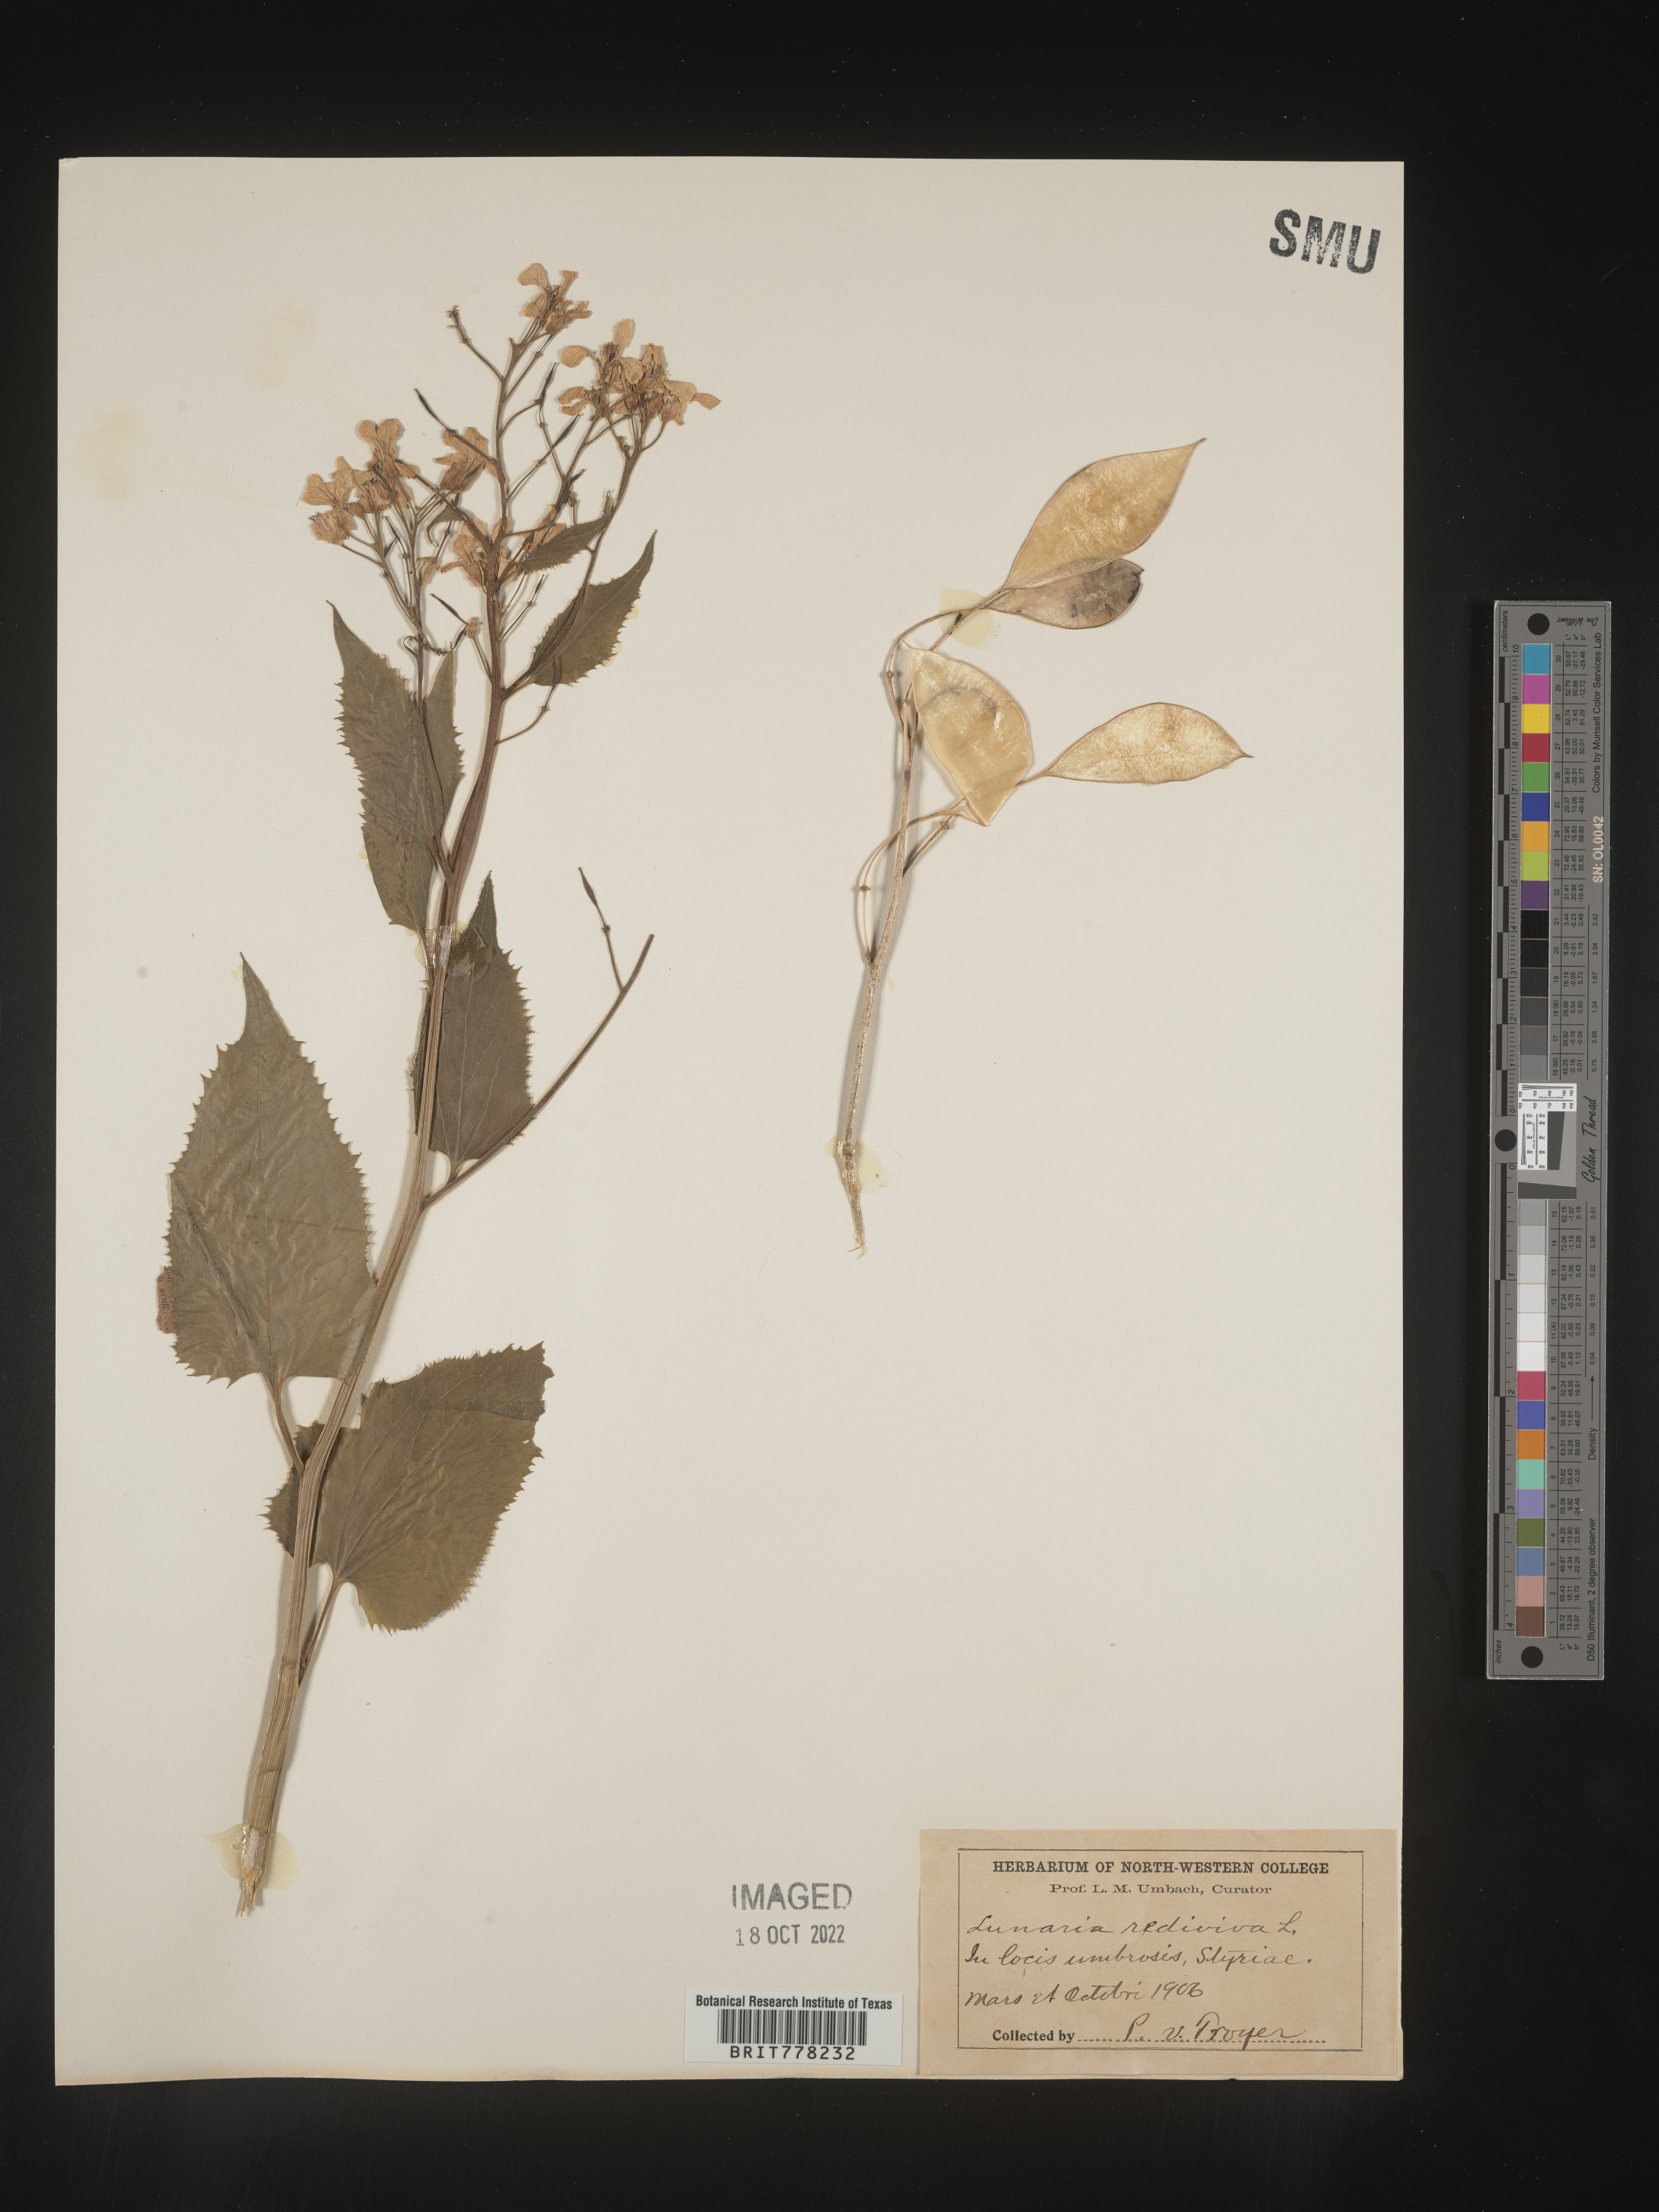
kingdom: Plantae
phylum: Tracheophyta
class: Magnoliopsida
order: Brassicales
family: Brassicaceae
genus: Lunaria
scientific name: Lunaria
